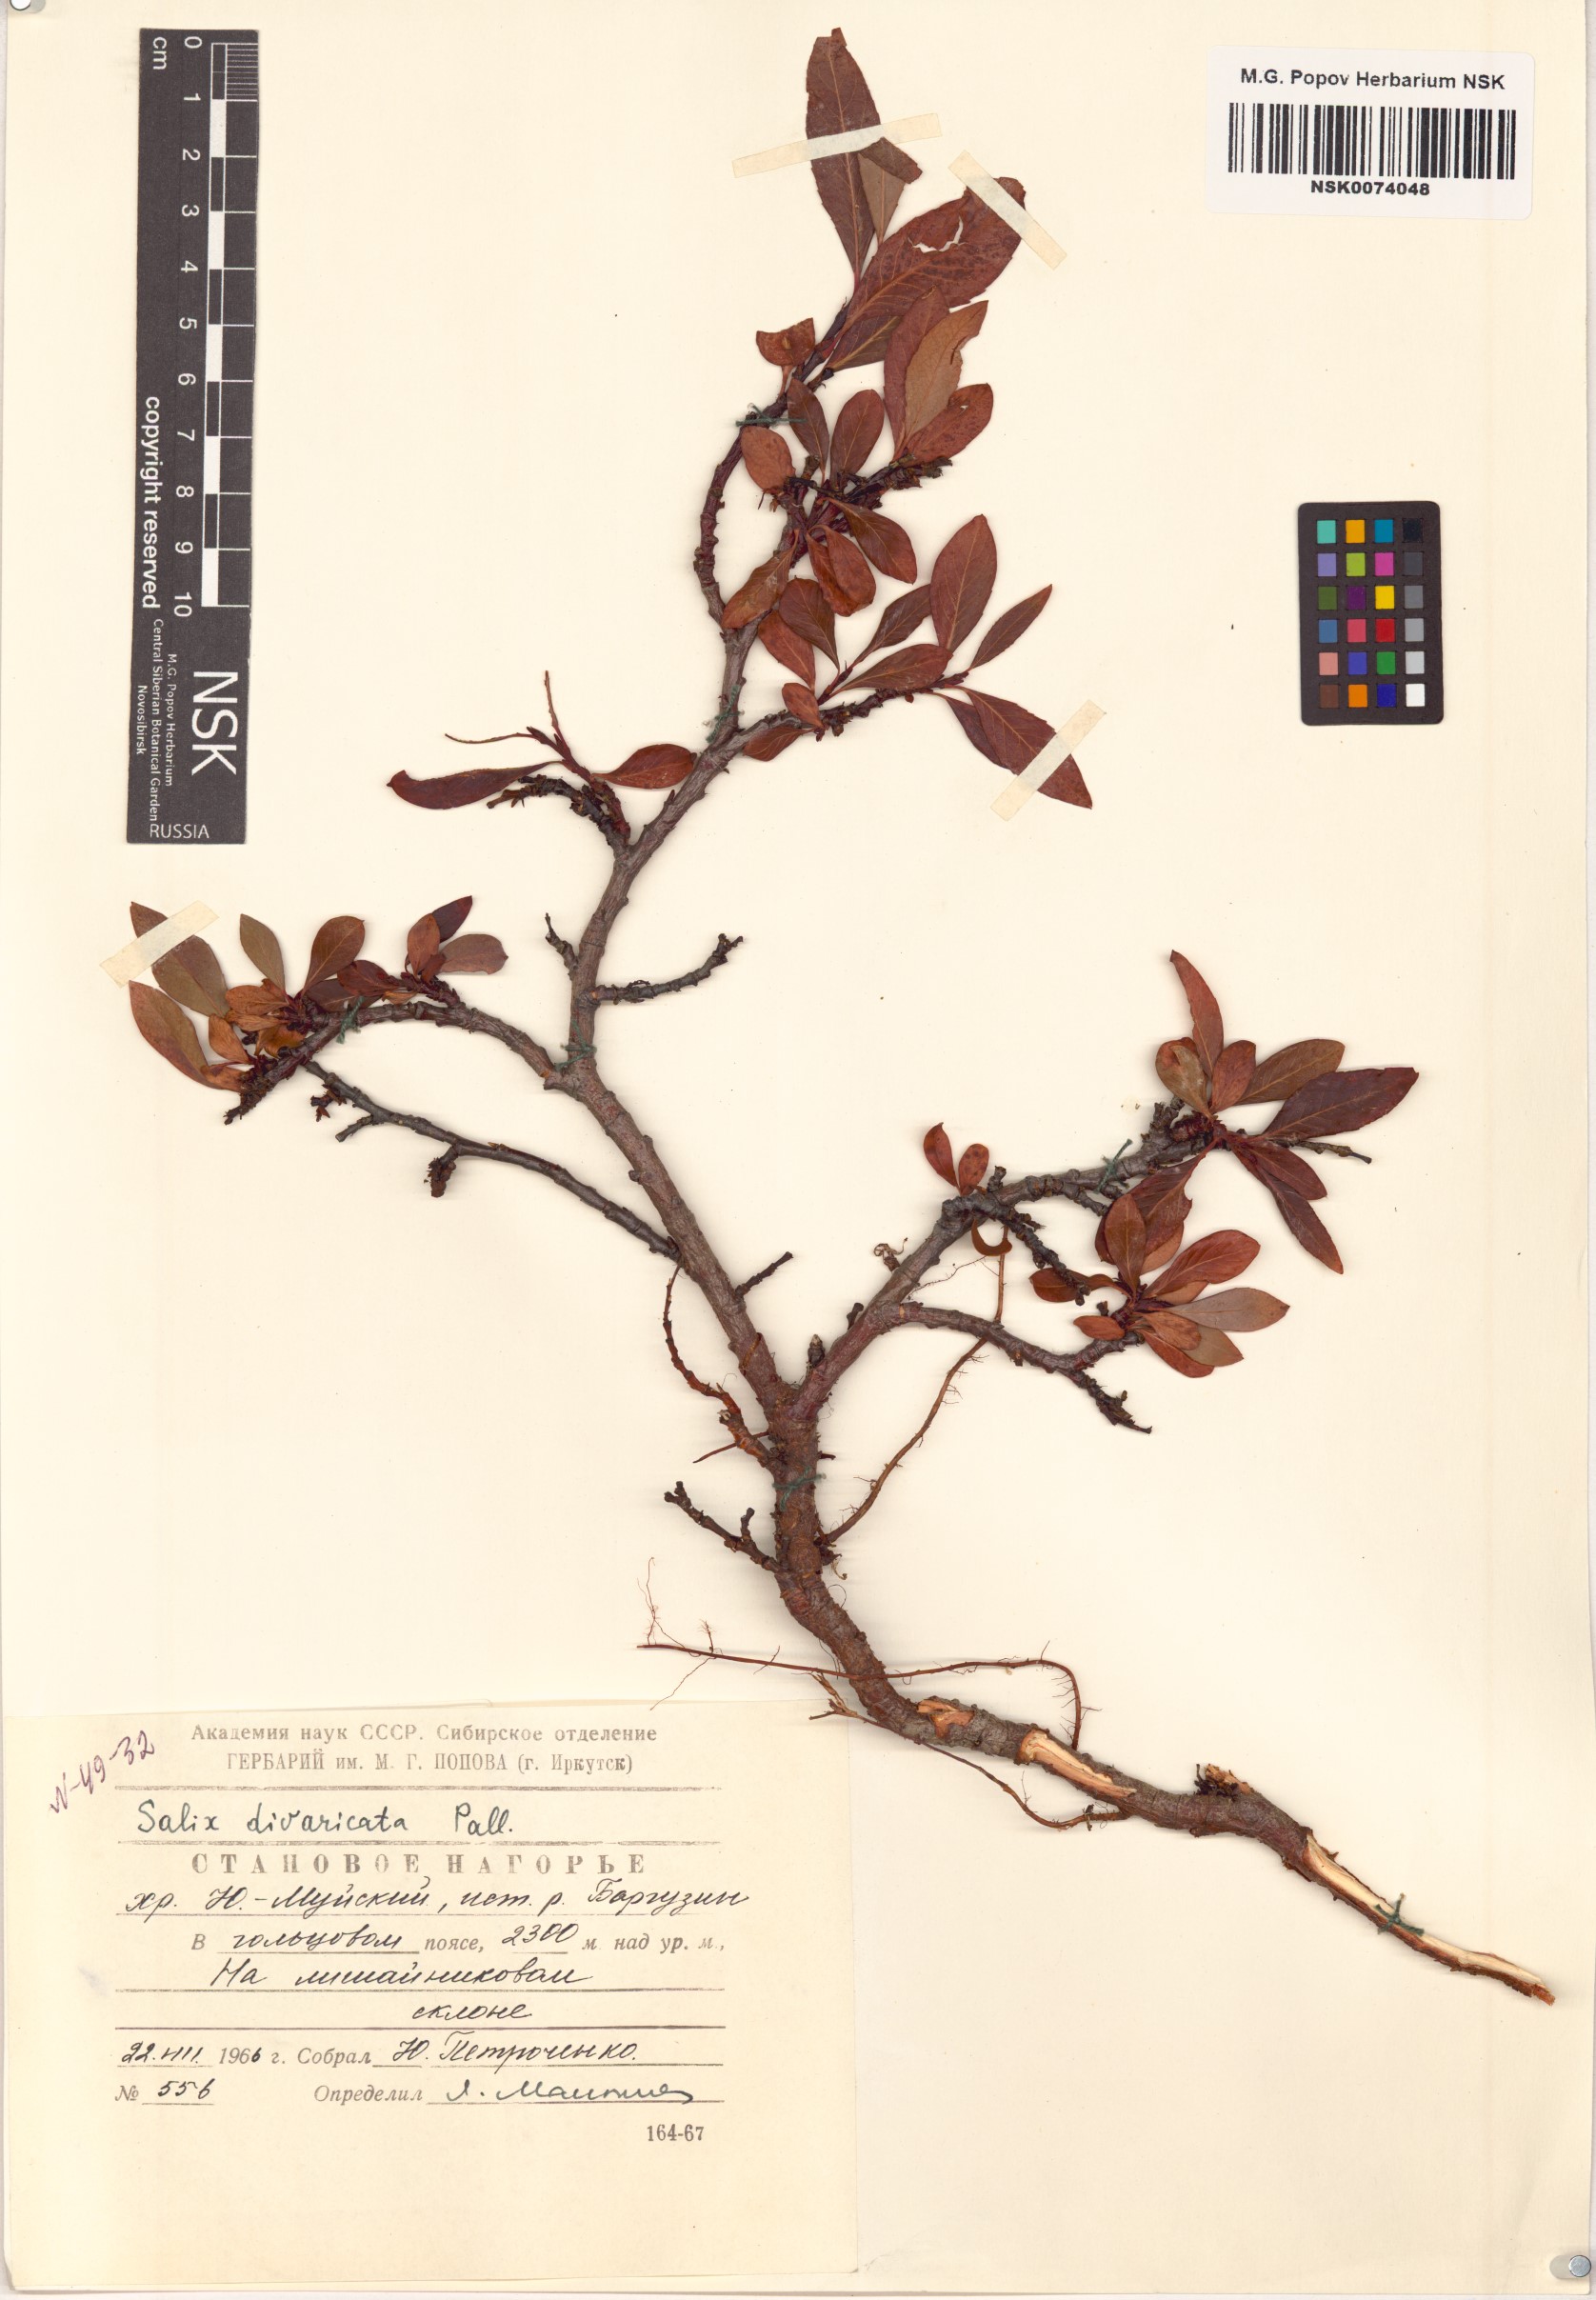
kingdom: Plantae
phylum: Tracheophyta
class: Magnoliopsida
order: Malpighiales
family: Salicaceae
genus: Salix
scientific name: Salix divaricata
